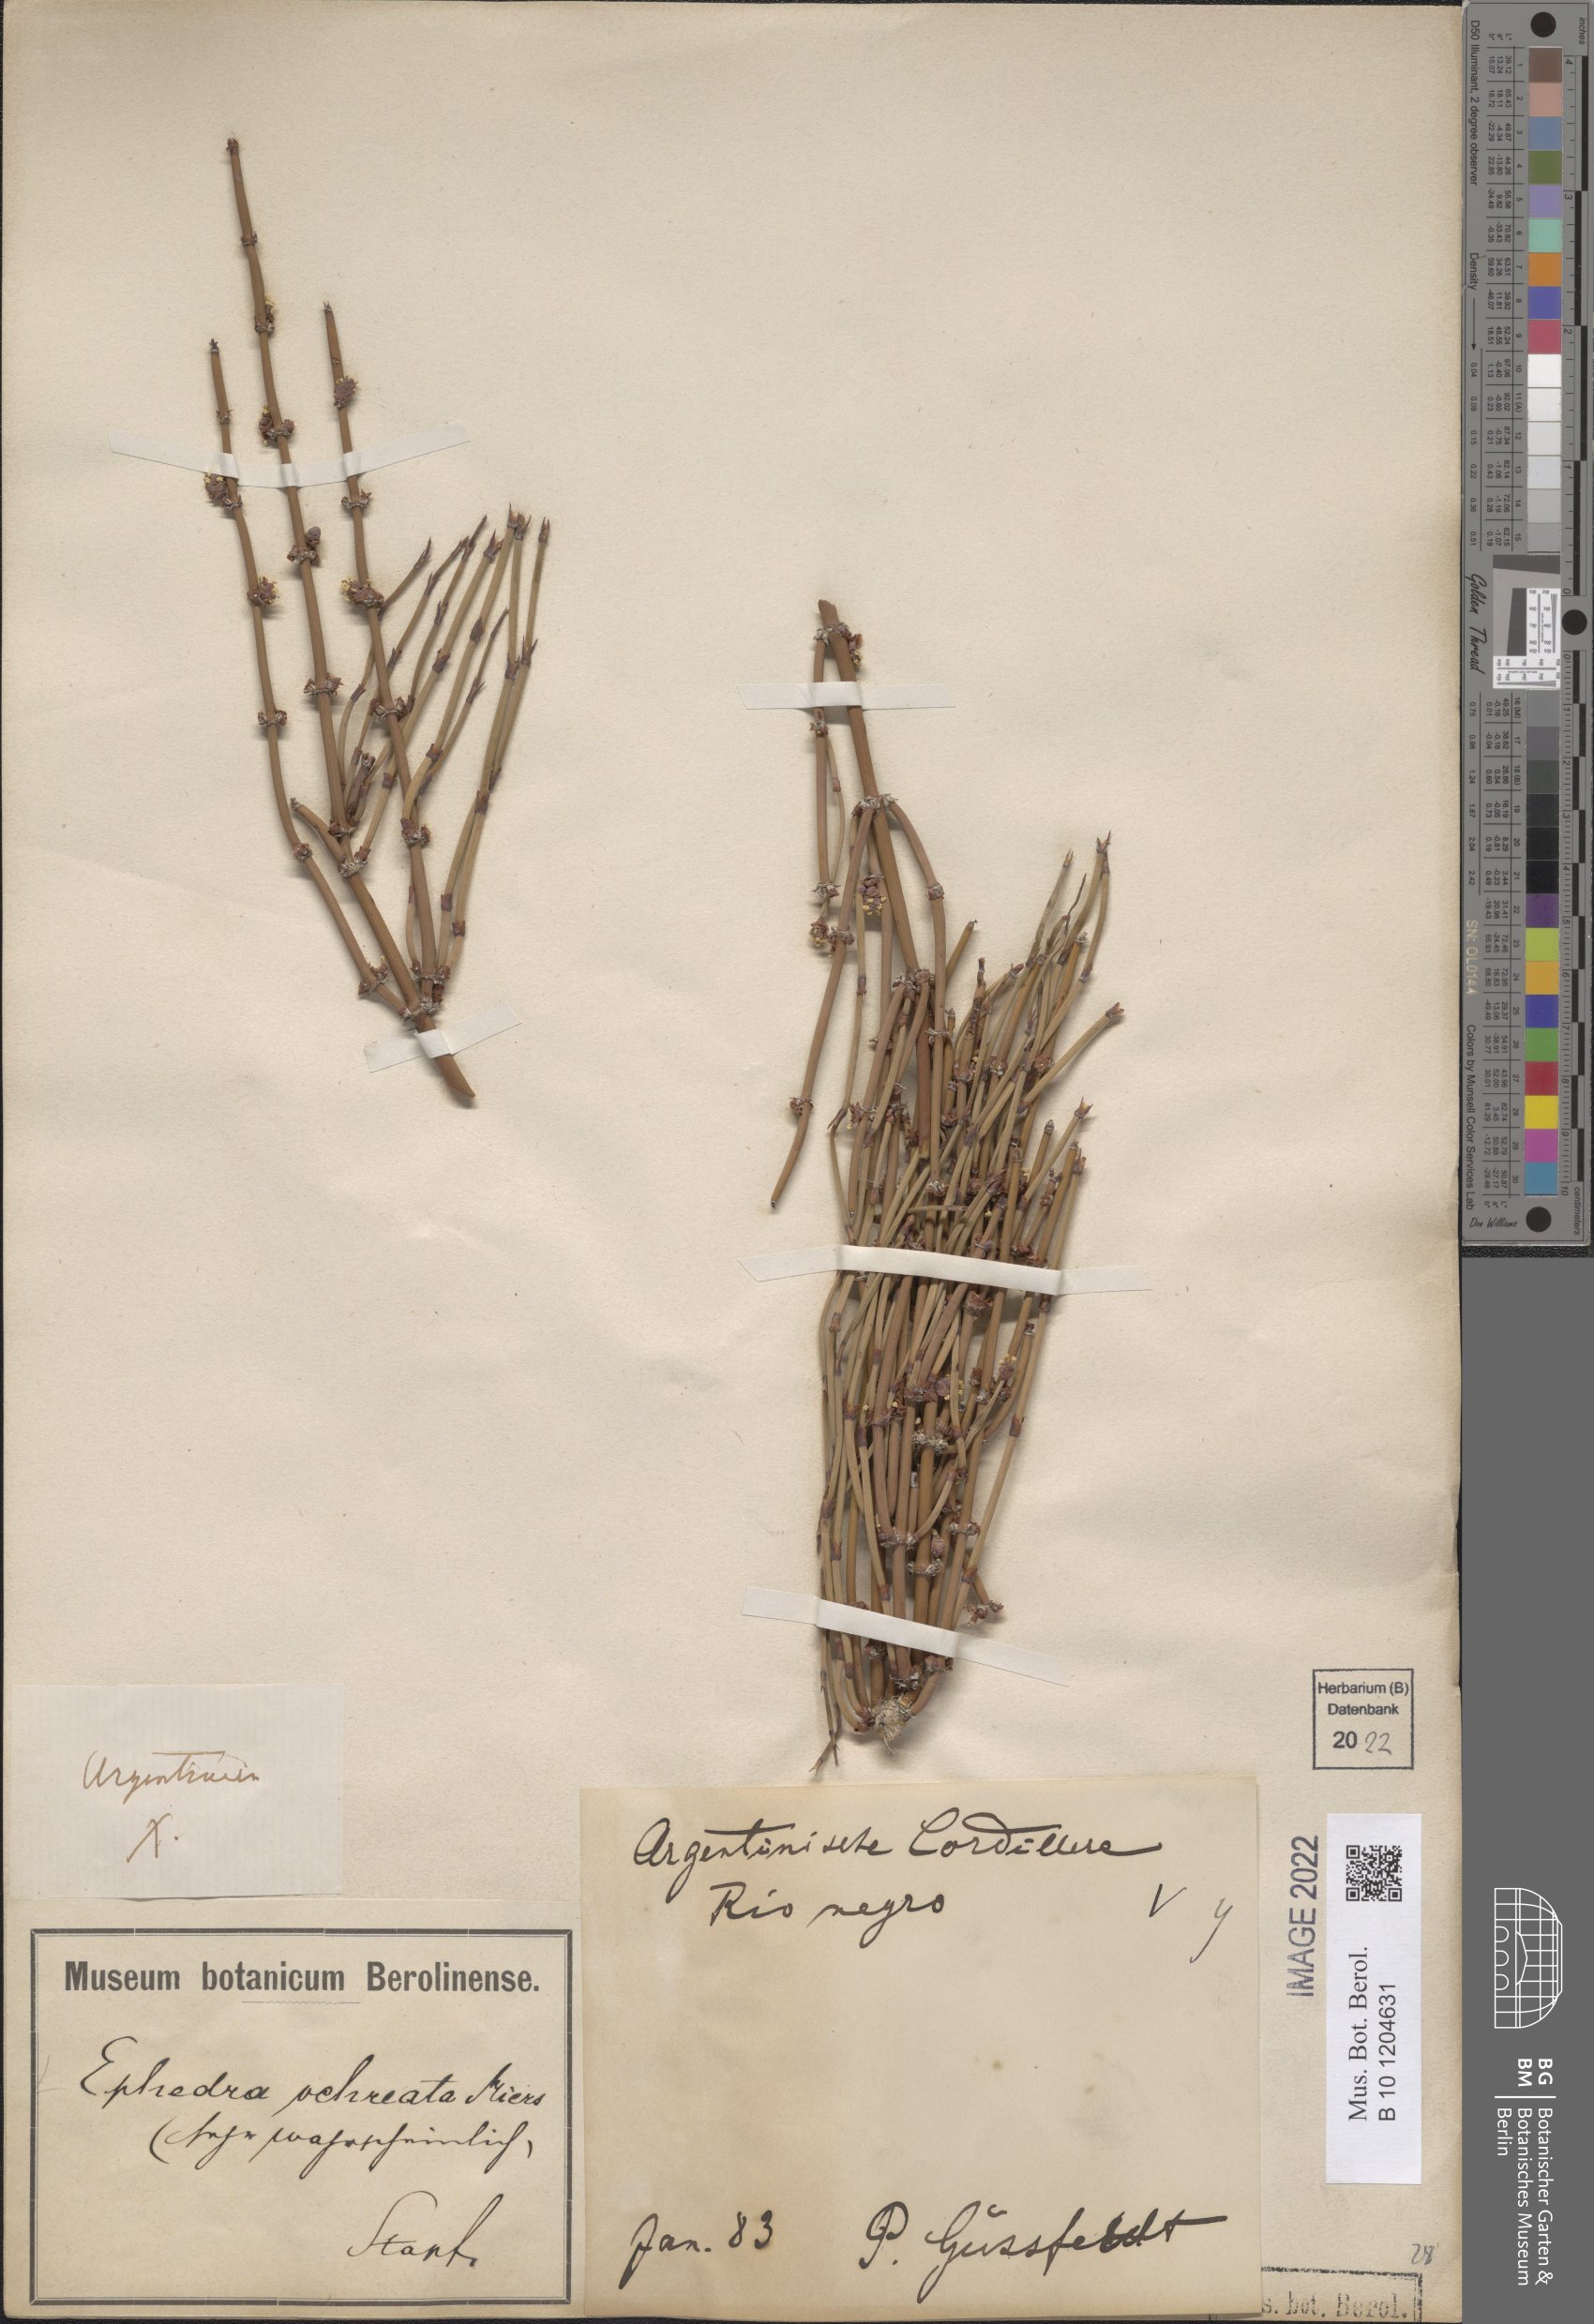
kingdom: Plantae
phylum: Tracheophyta
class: Gnetopsida
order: Ephedrales
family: Ephedraceae
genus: Ephedra
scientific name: Ephedra ochreata
